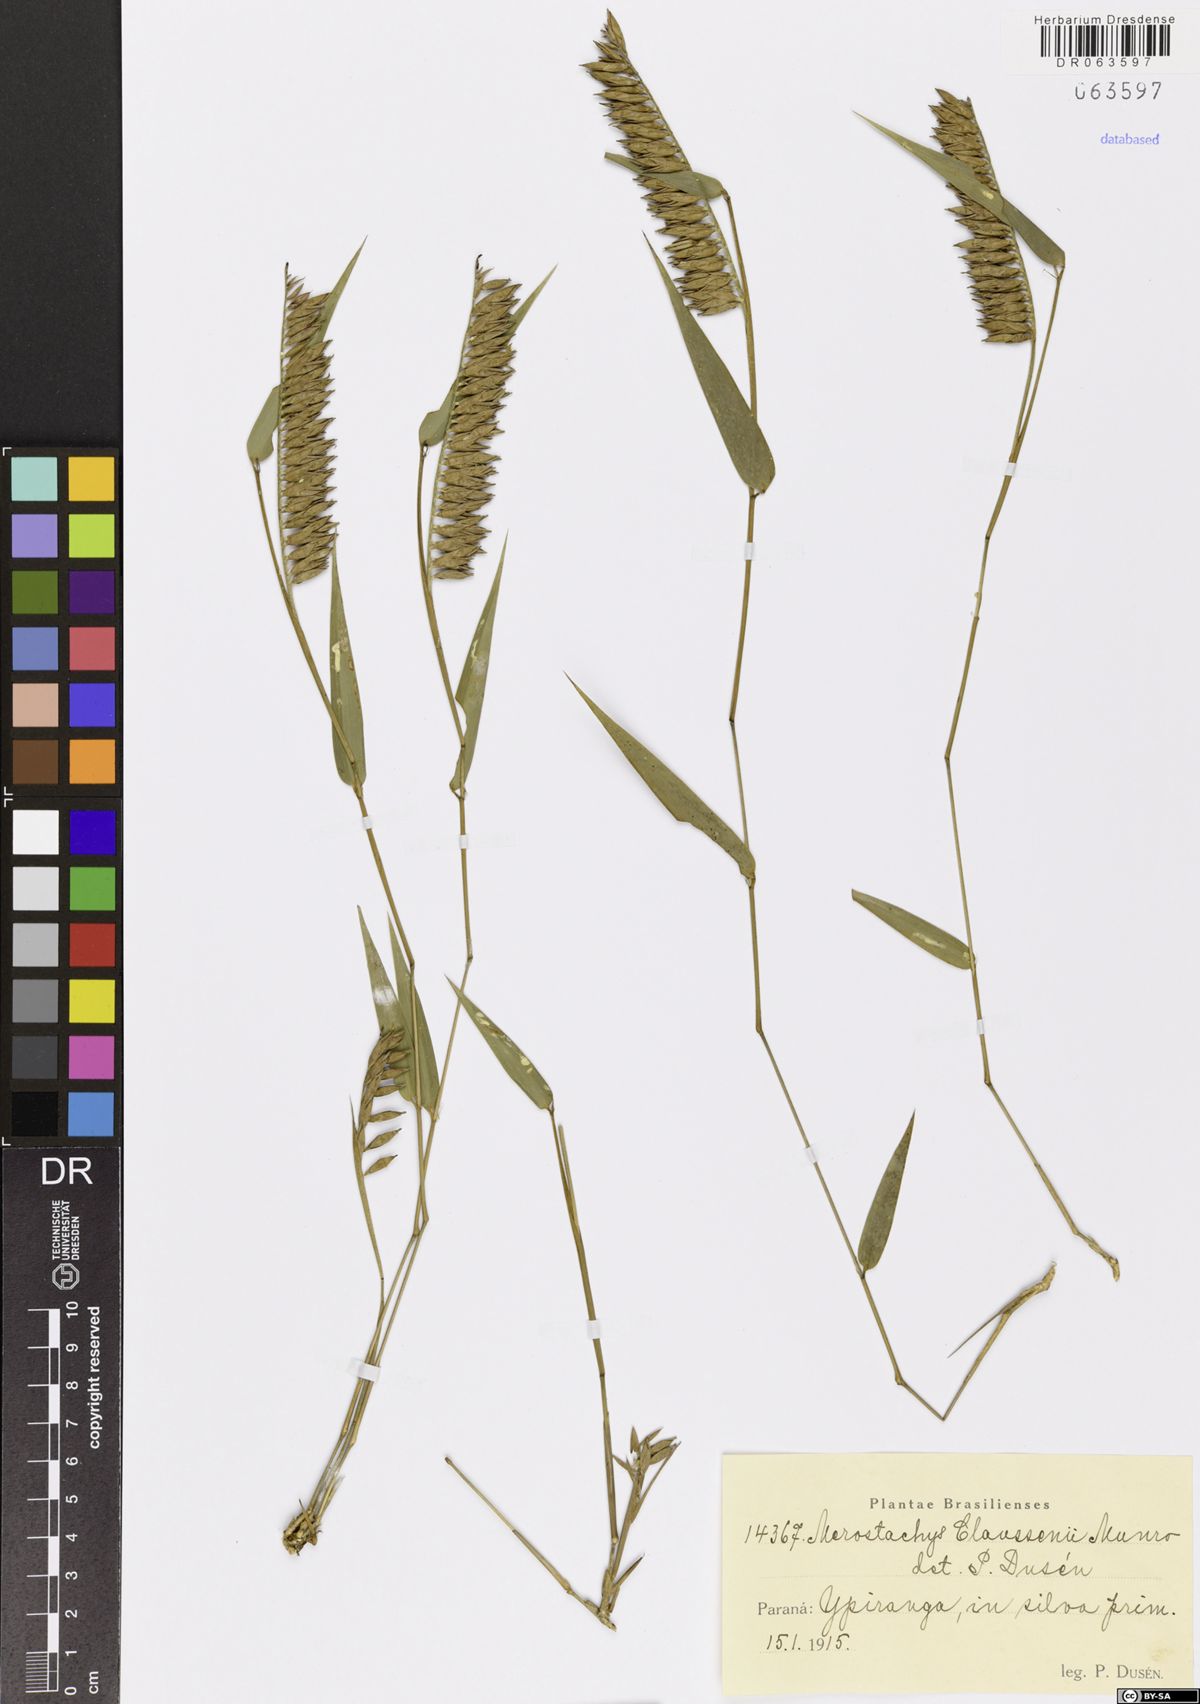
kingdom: Plantae
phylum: Tracheophyta
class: Liliopsida
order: Poales
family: Poaceae
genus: Merostachys
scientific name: Merostachys claussenii
